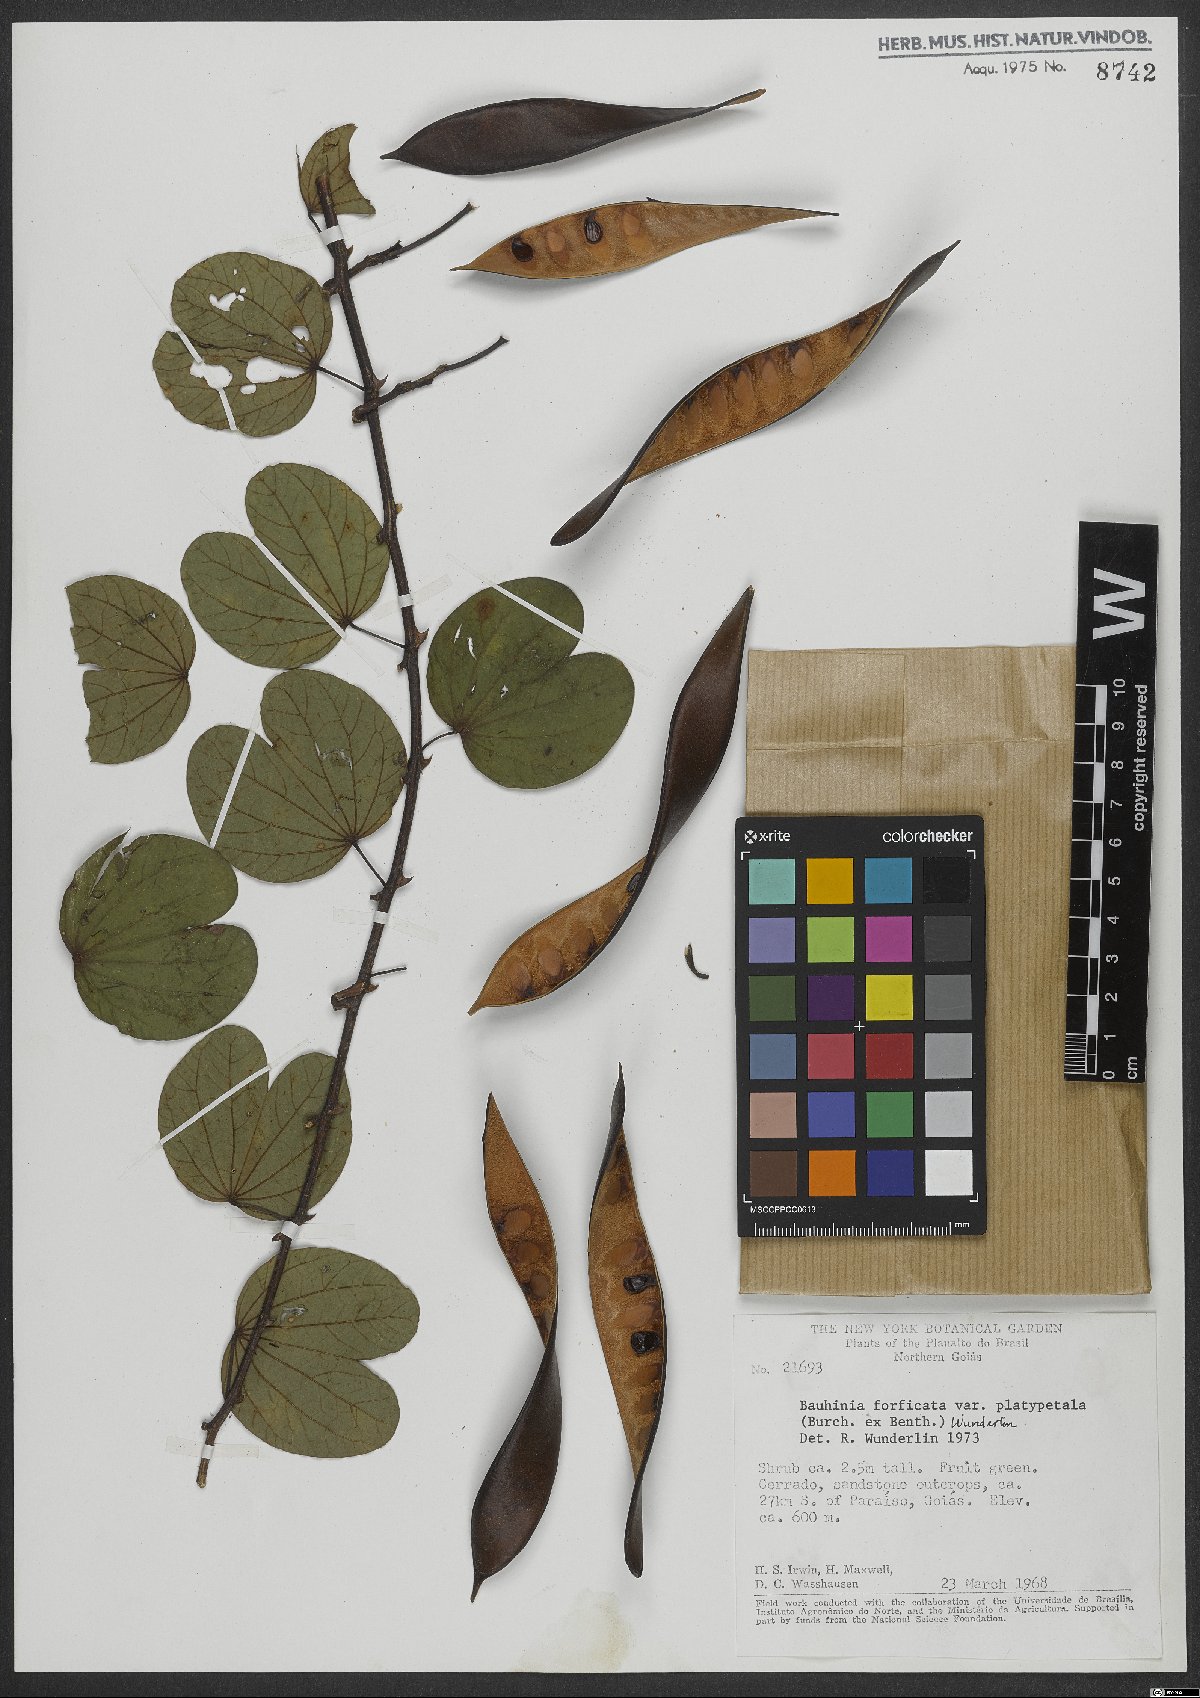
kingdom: Plantae
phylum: Tracheophyta
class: Magnoliopsida
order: Fabales
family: Fabaceae
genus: Bauhinia
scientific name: Bauhinia forficata
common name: Orchid tree
